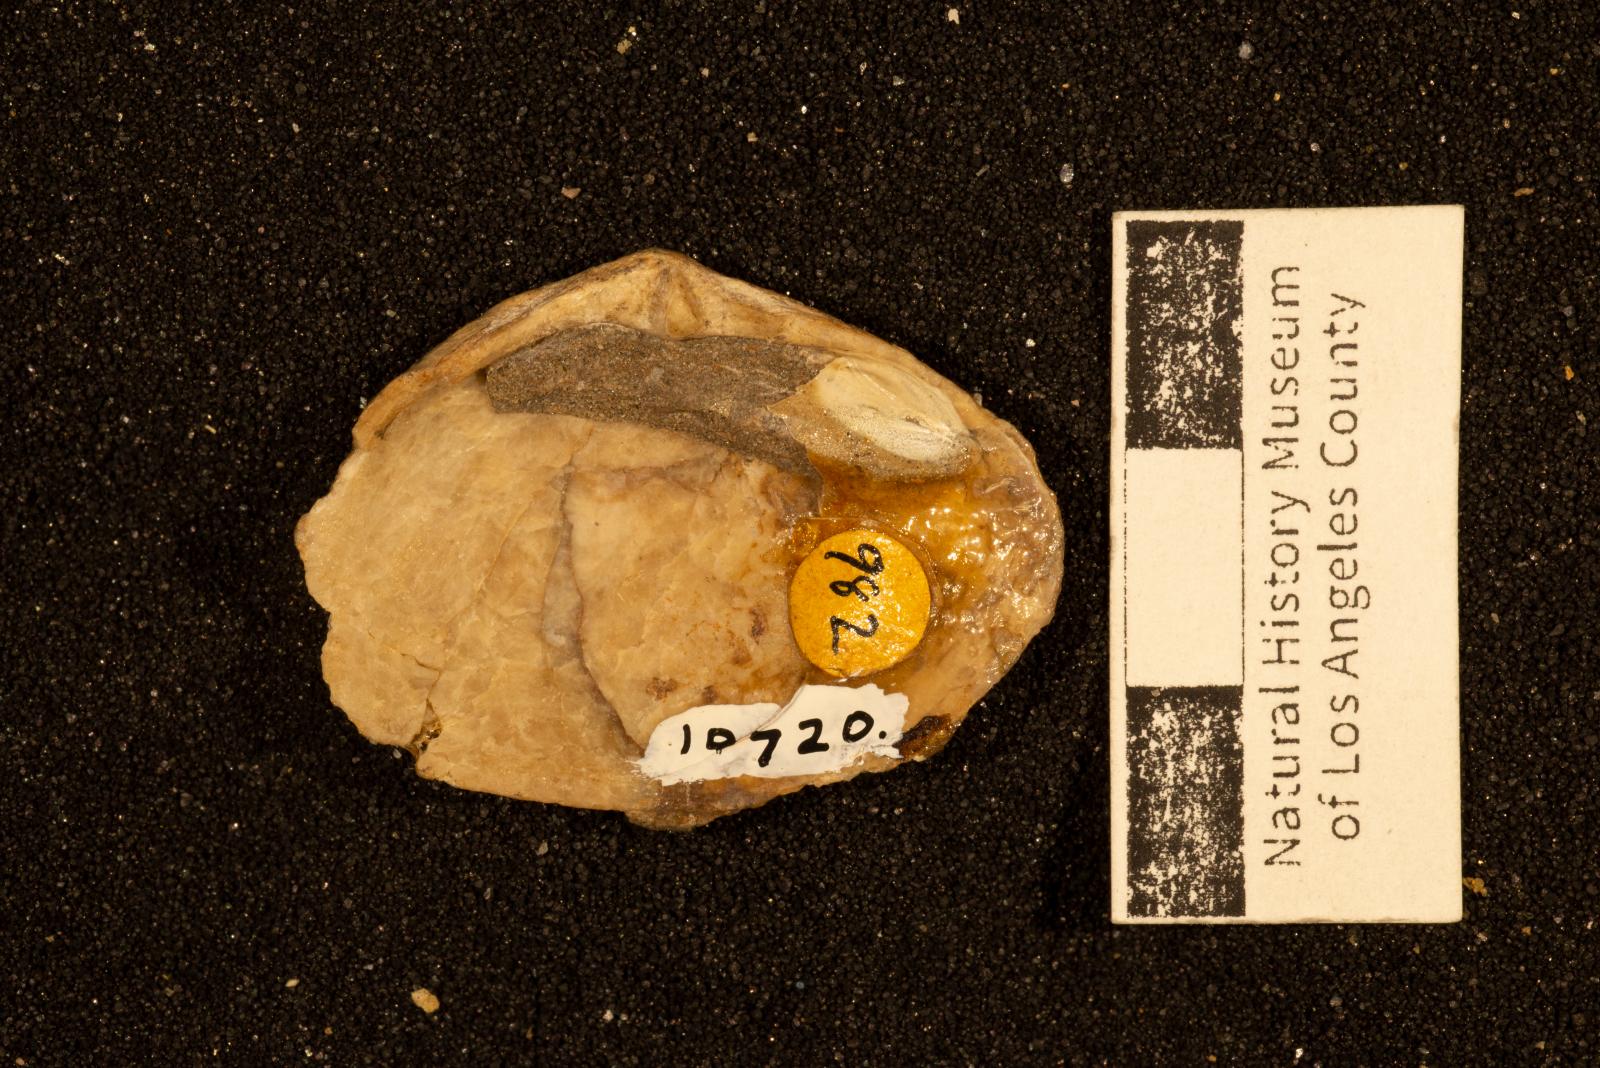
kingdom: Animalia
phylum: Mollusca
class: Bivalvia
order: Cardiida
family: Tellinidae
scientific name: Tellinidae
